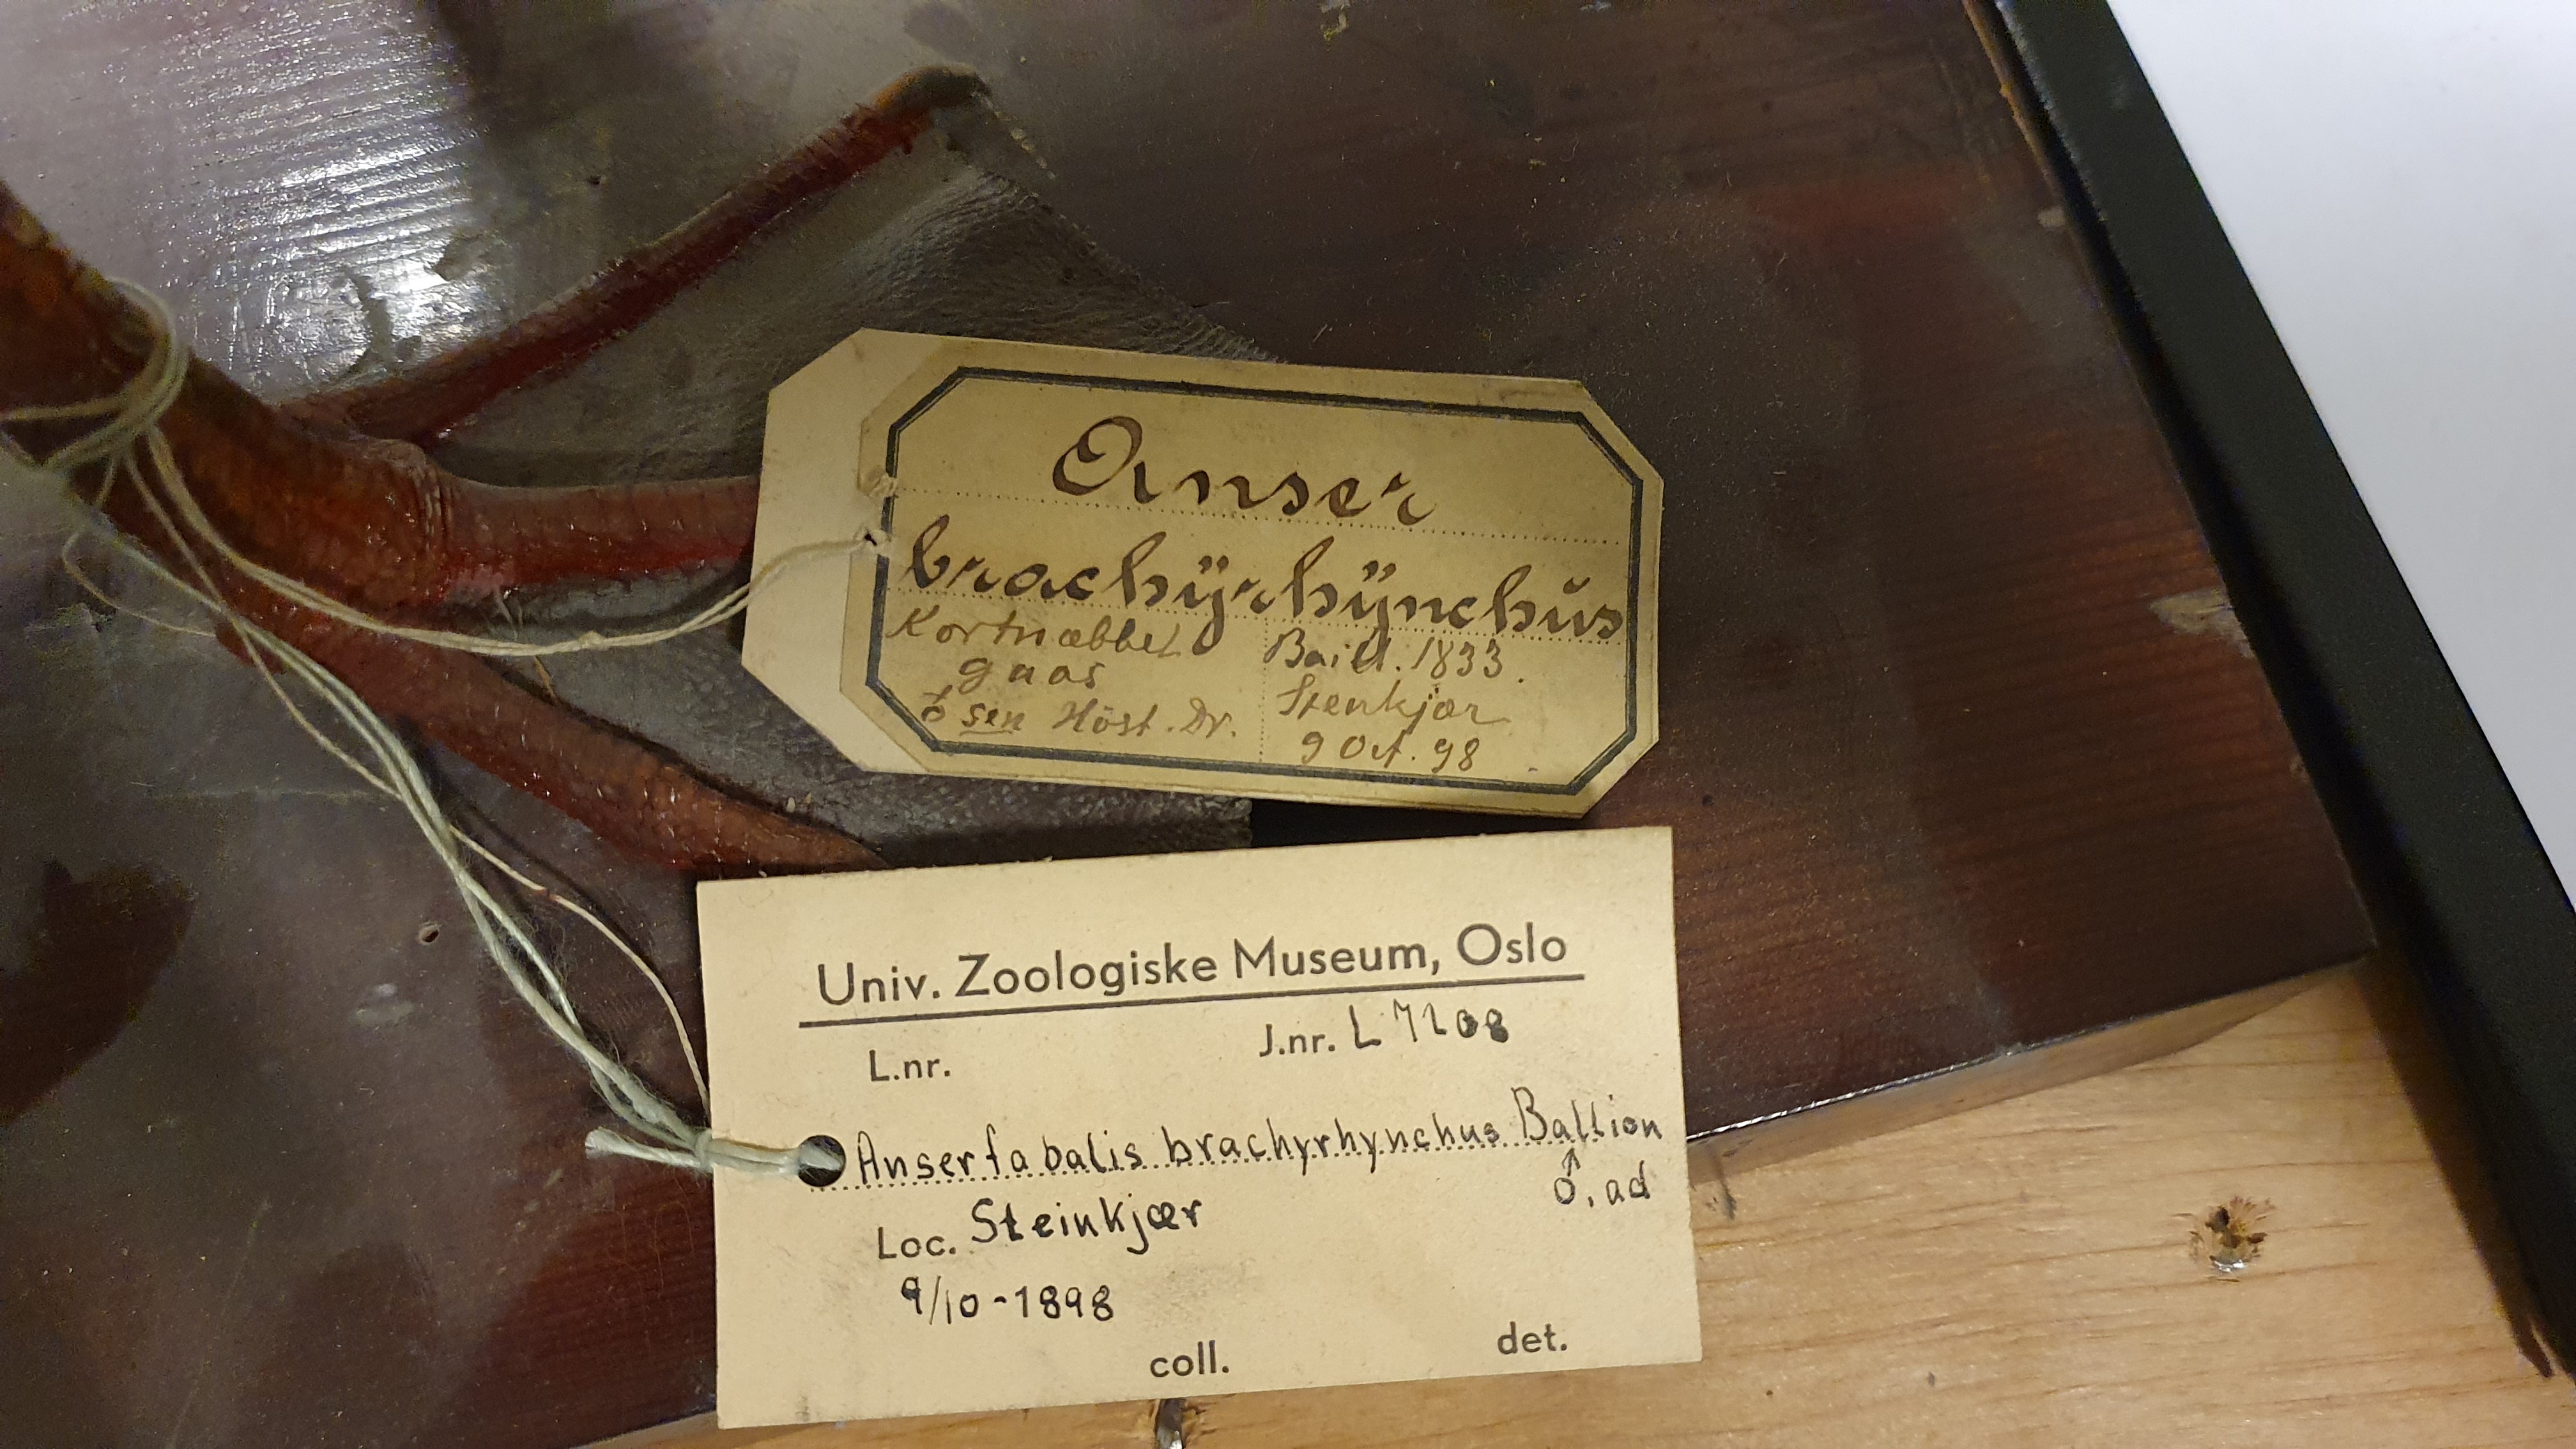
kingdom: Animalia
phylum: Chordata
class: Aves
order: Anseriformes
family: Anatidae
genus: Anser
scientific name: Anser brachyrhynchus
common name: Pink-footed goose
